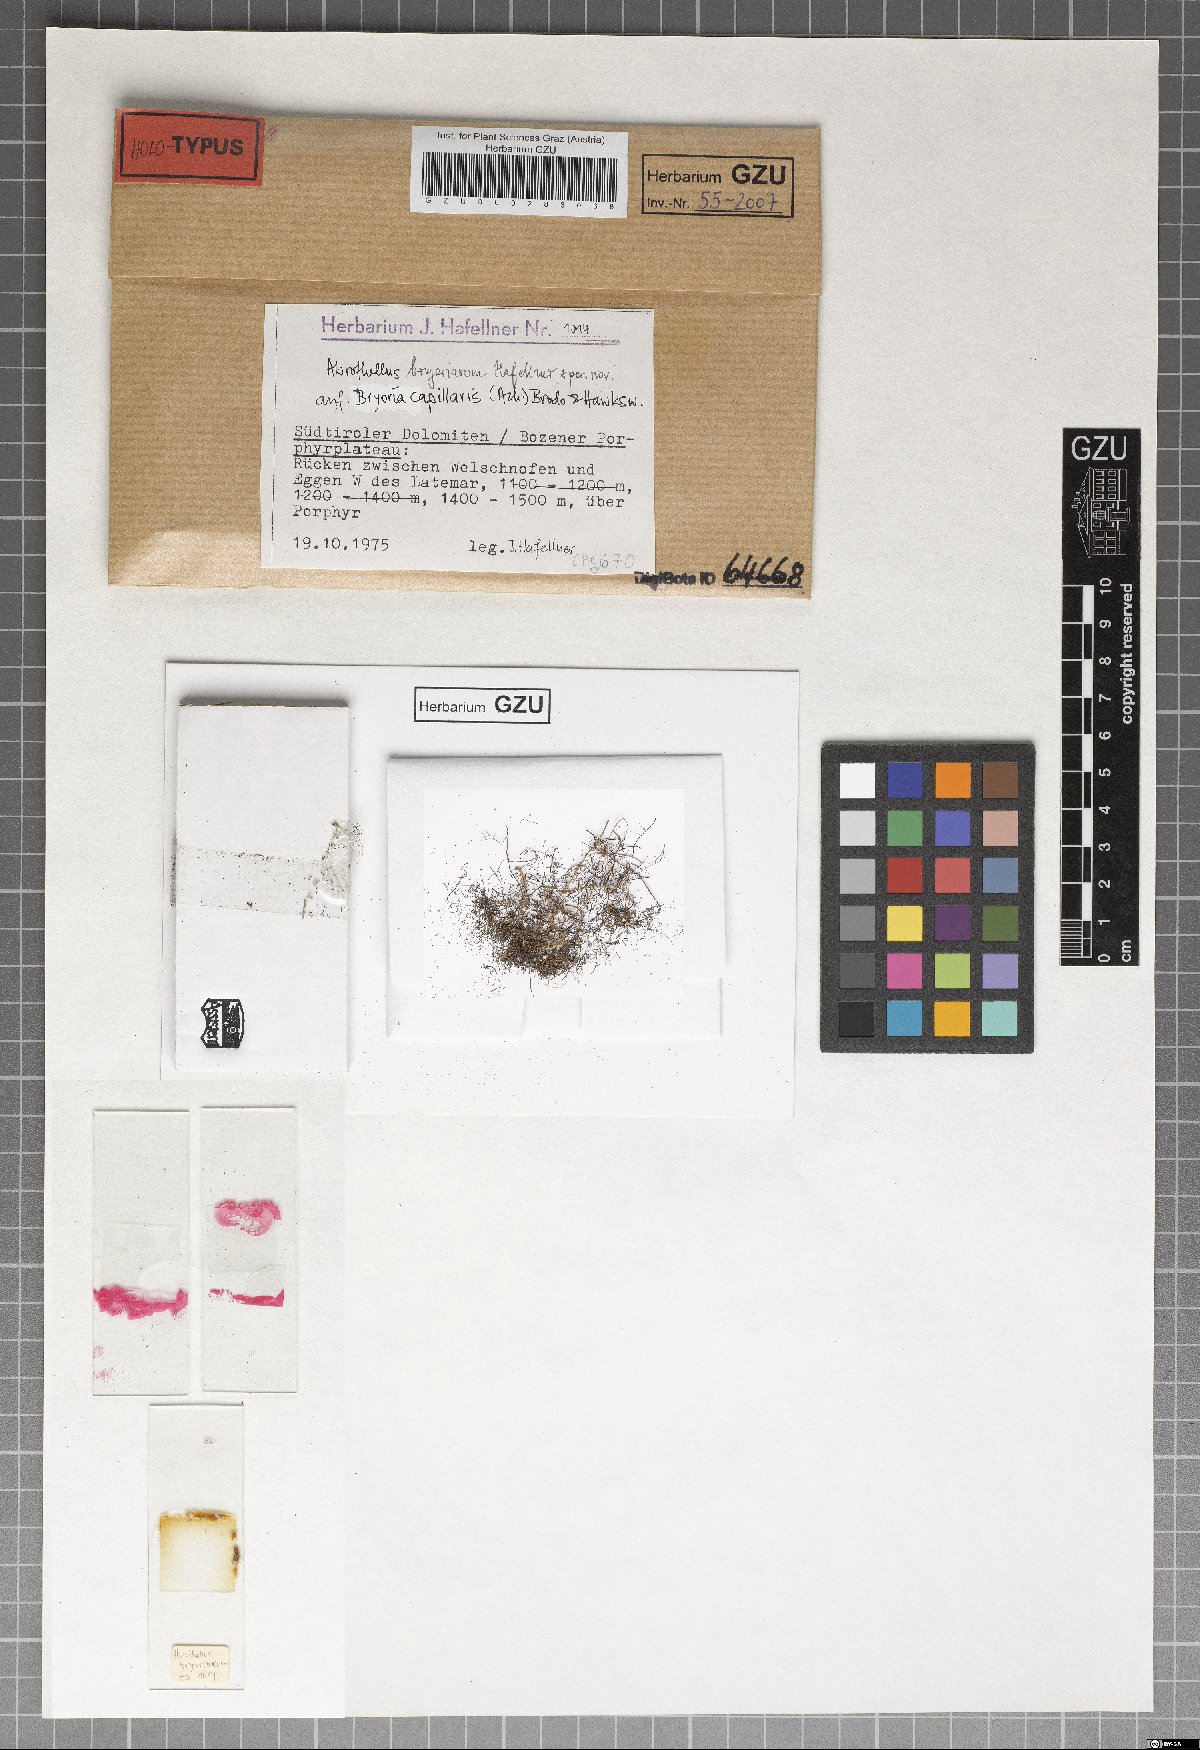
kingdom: Fungi
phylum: Ascomycota
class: Dothideomycetes
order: Abrothallales
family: Abrothallaceae
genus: Abrothallus
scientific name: Abrothallus bryoriarum
